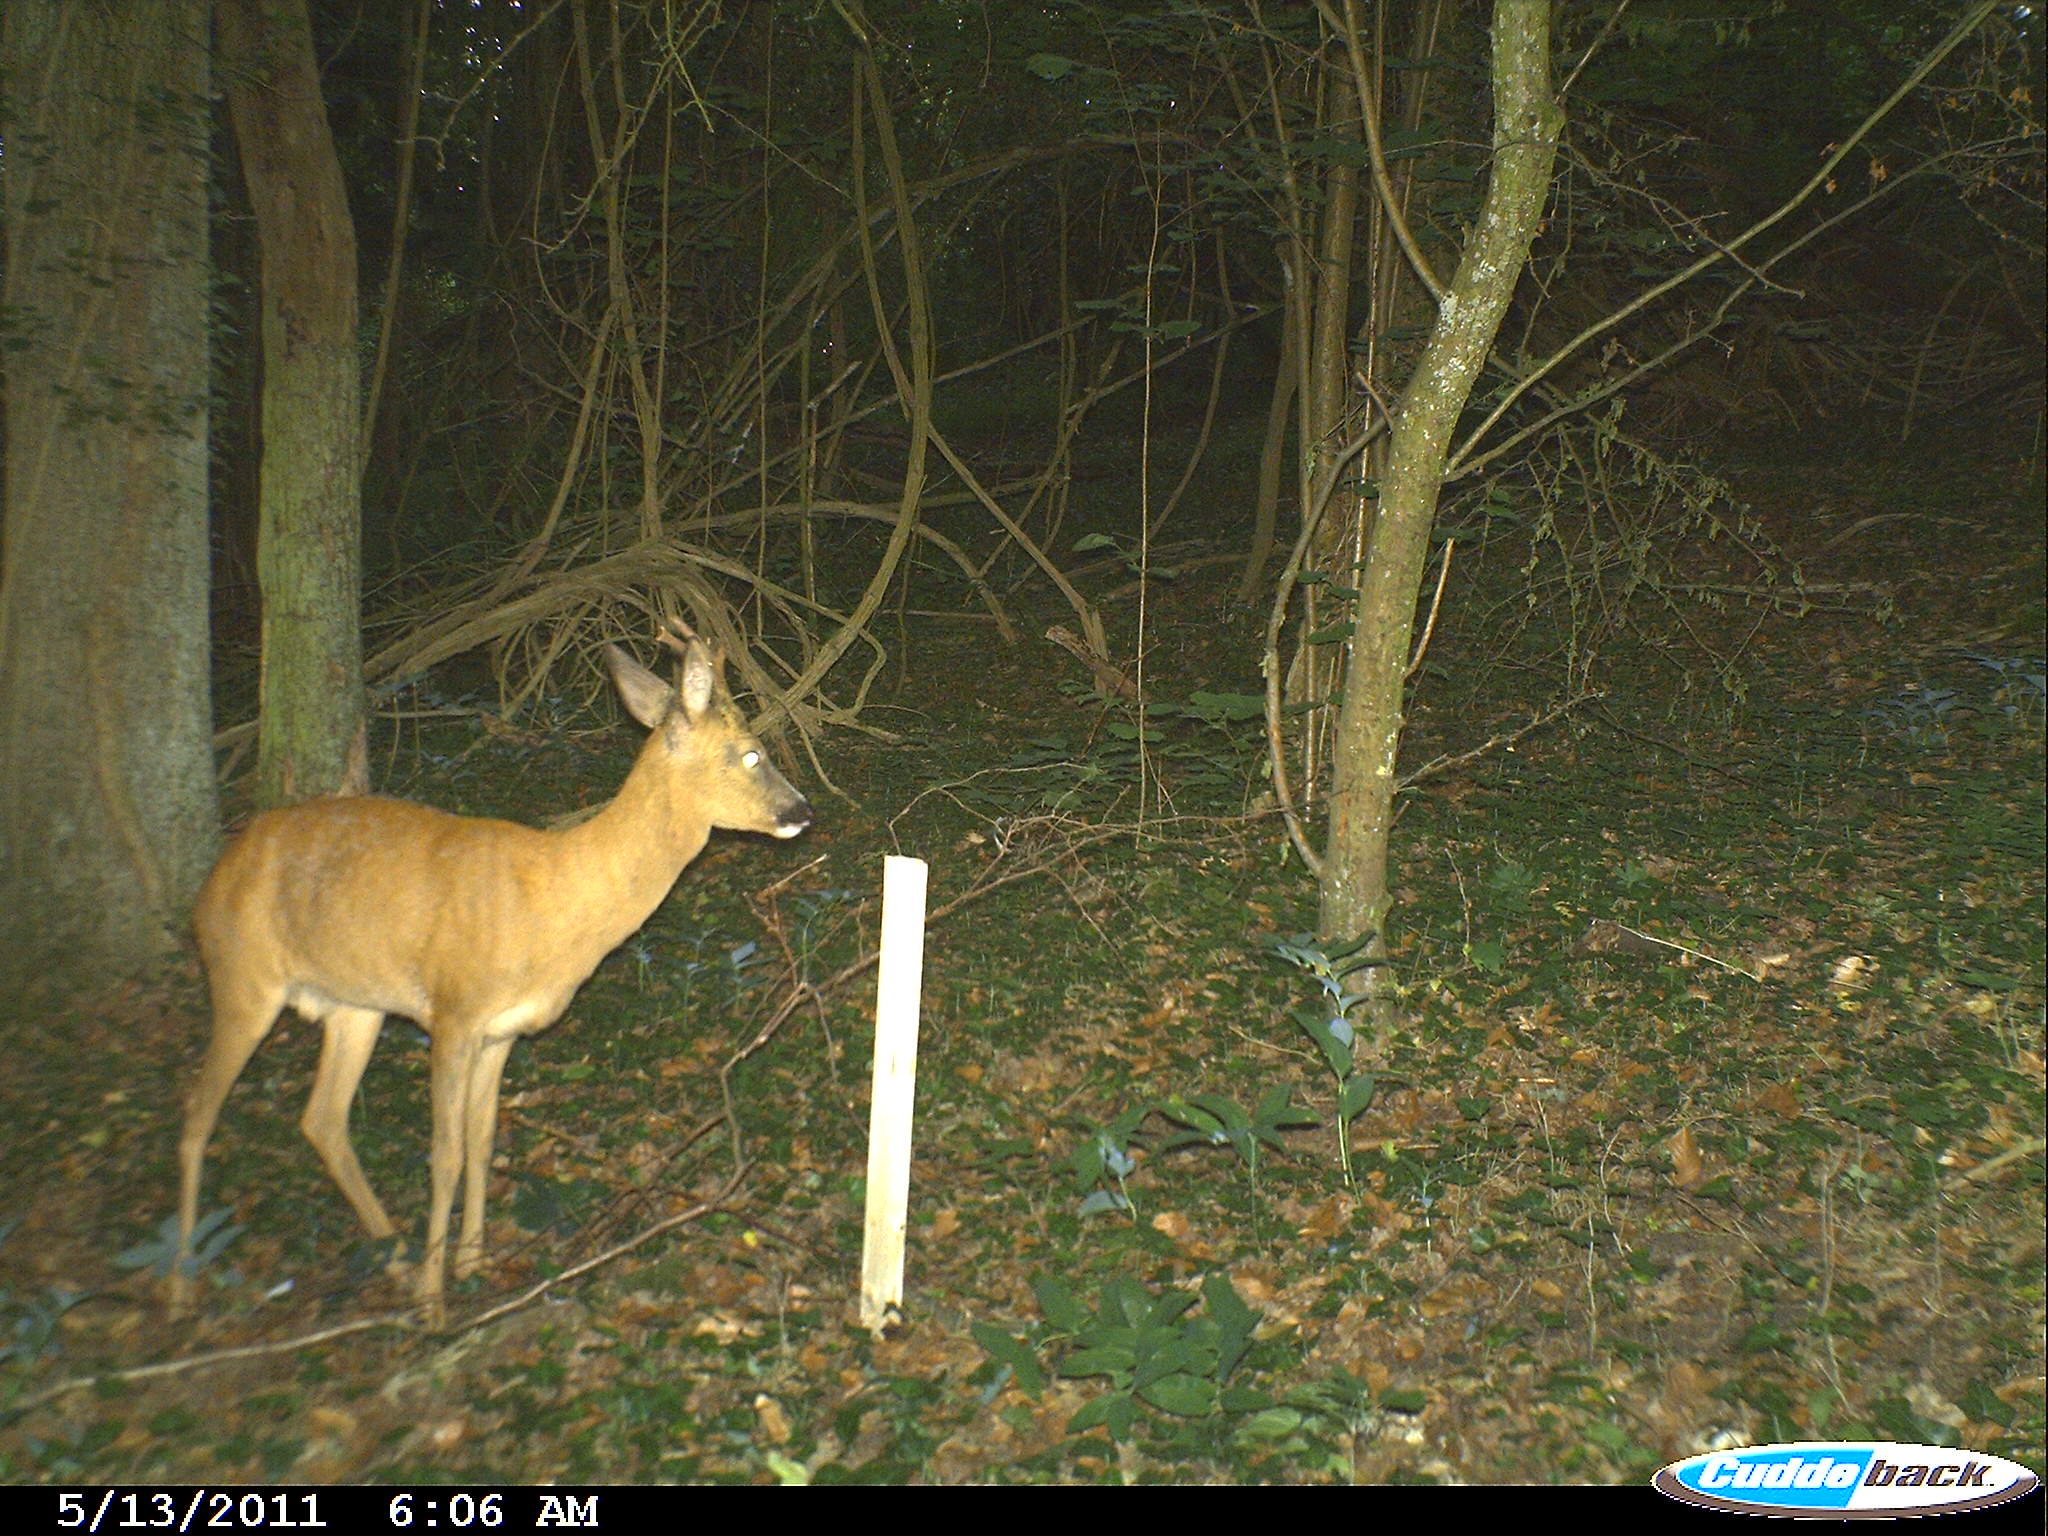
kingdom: Animalia
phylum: Chordata
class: Mammalia
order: Artiodactyla
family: Cervidae
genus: Capreolus
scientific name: Capreolus capreolus
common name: Western roe deer
